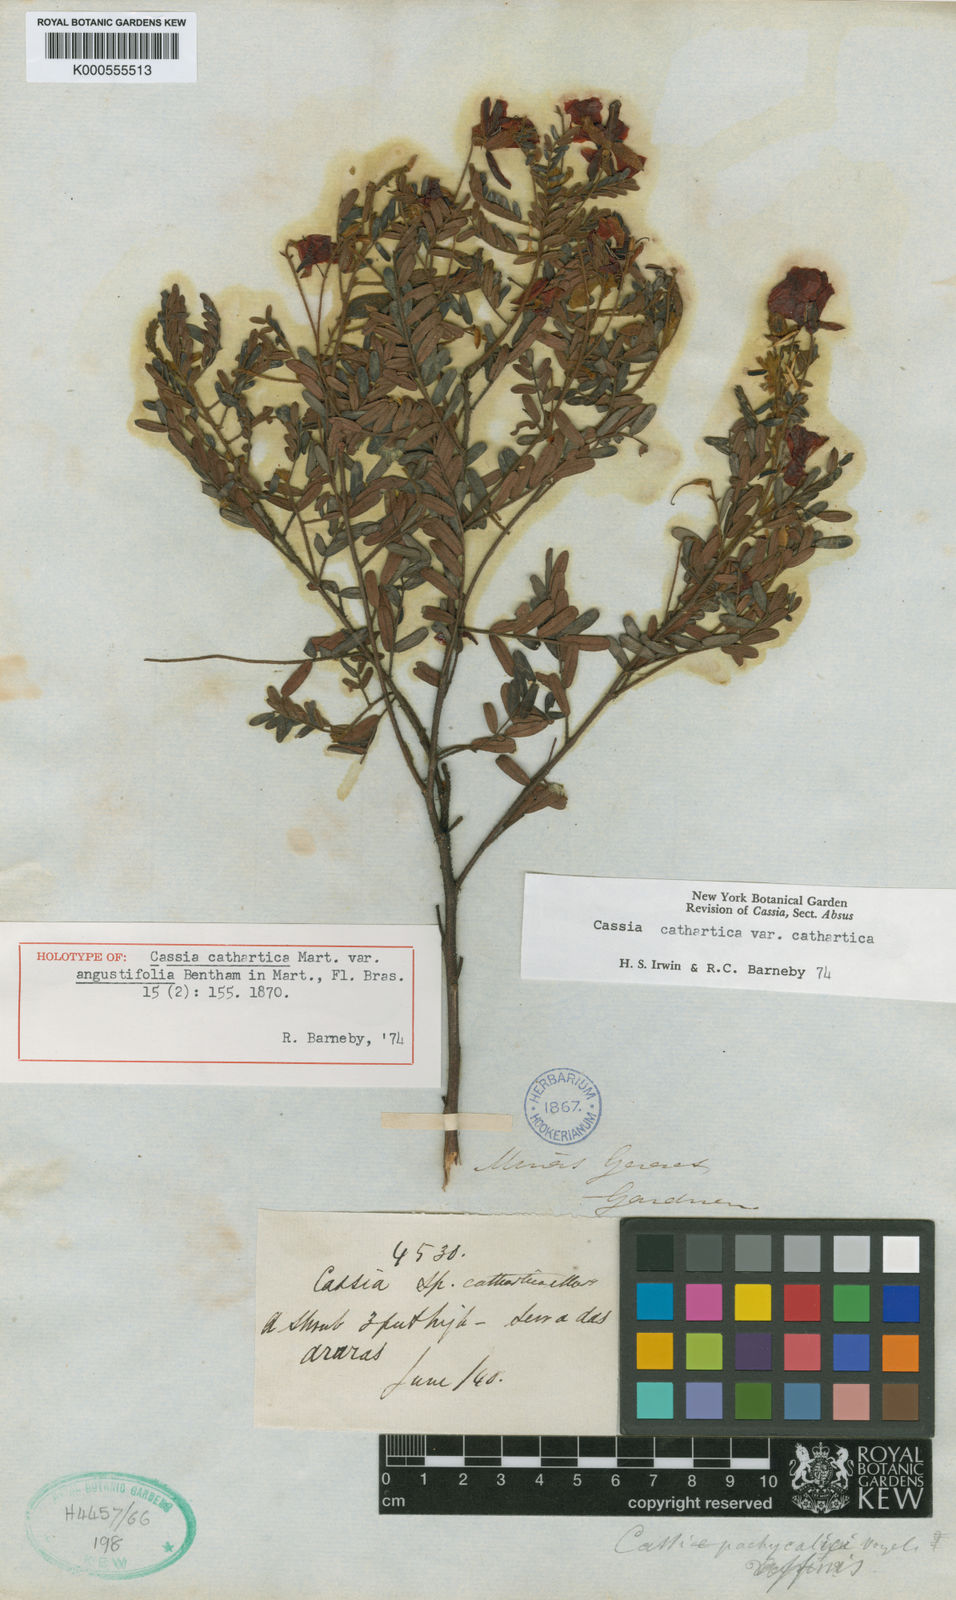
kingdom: Plantae
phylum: Tracheophyta
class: Magnoliopsida
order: Fabales
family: Fabaceae
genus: Chamaecrista
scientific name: Chamaecrista cathartica
